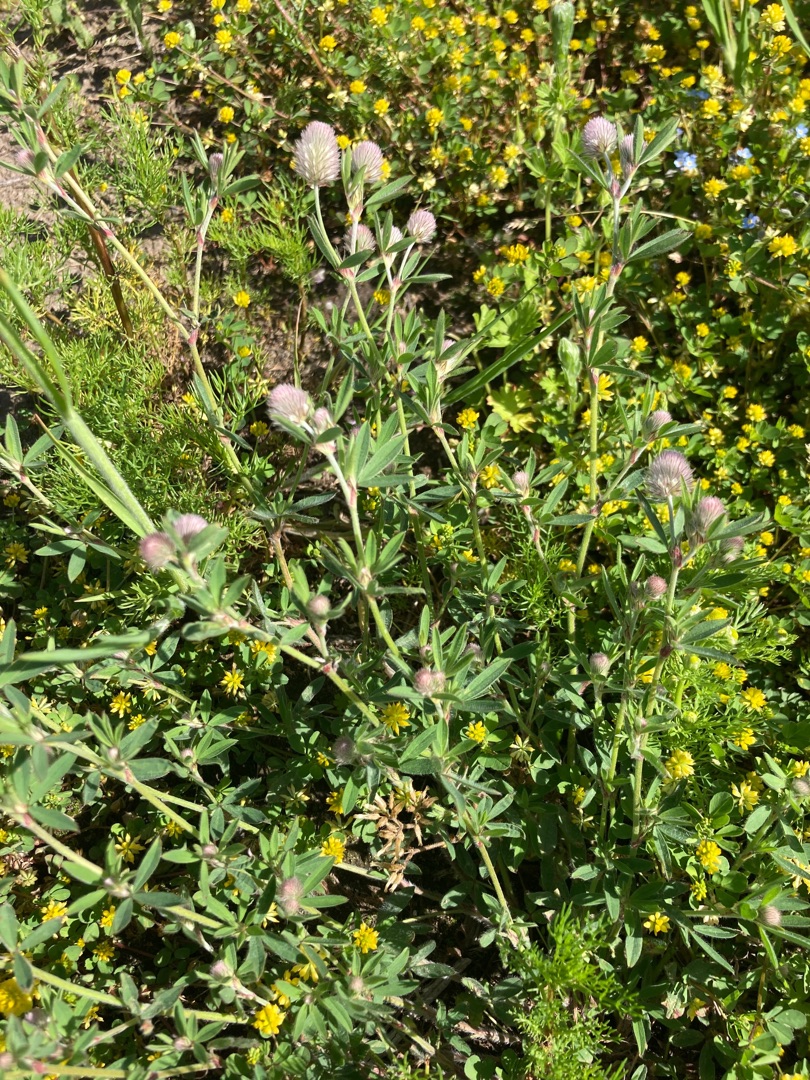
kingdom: Plantae
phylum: Tracheophyta
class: Magnoliopsida
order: Fabales
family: Fabaceae
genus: Trifolium
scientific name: Trifolium arvense
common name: Hare-kløver
